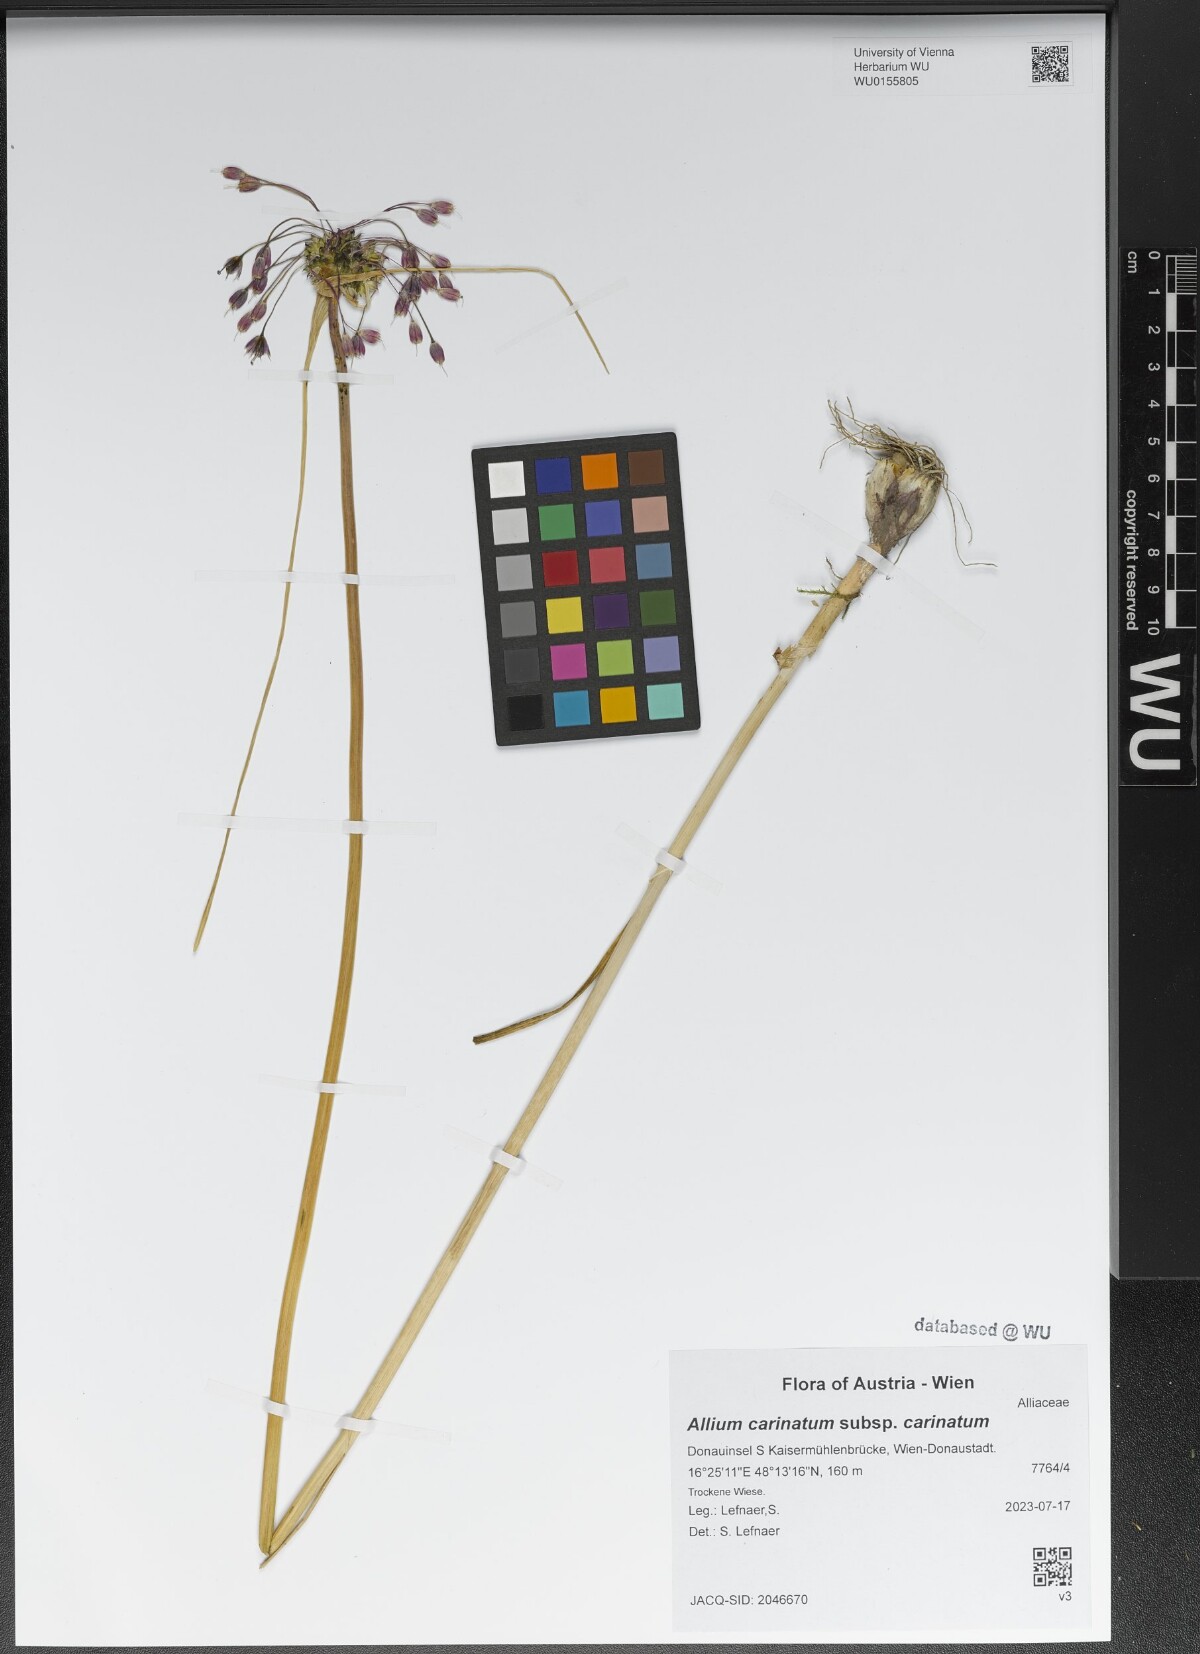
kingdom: Plantae
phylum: Tracheophyta
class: Liliopsida
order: Asparagales
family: Amaryllidaceae
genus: Allium
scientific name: Allium carinatum
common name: Keeled garlic
